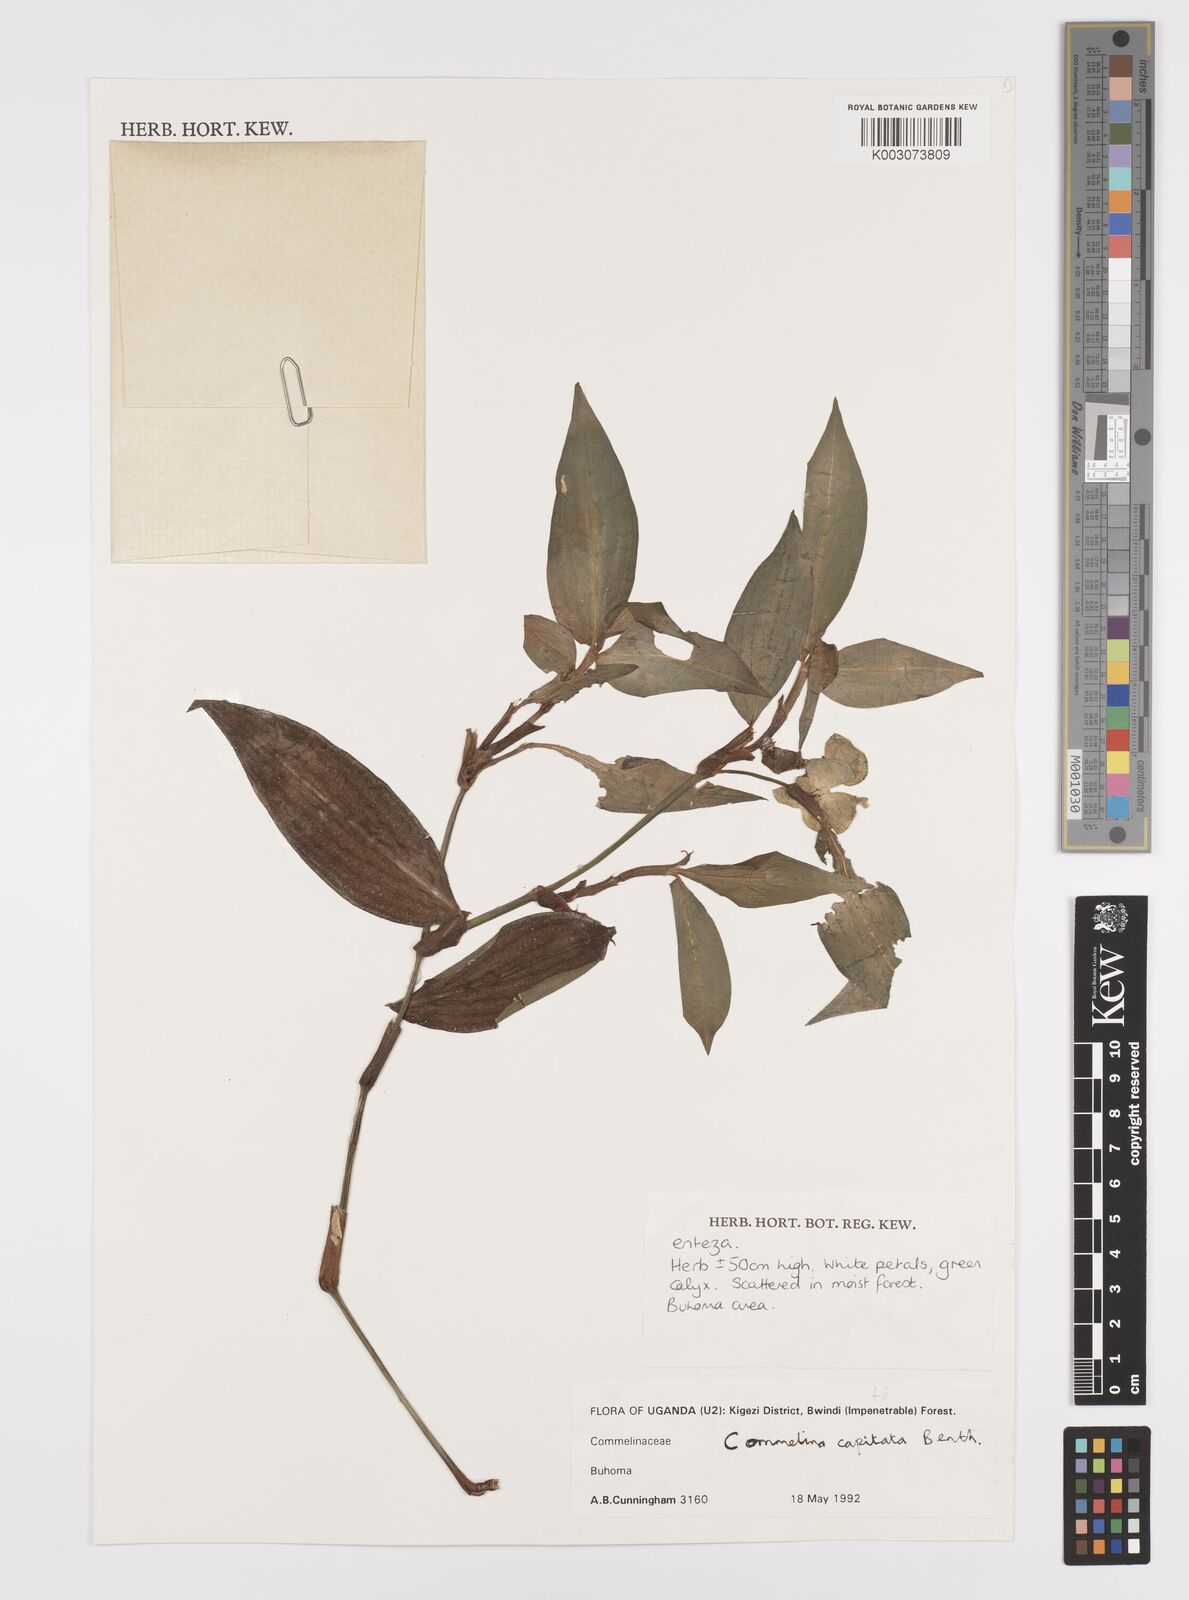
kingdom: Plantae
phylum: Tracheophyta
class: Liliopsida
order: Commelinales
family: Commelinaceae
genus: Commelina
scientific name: Commelina capitata
